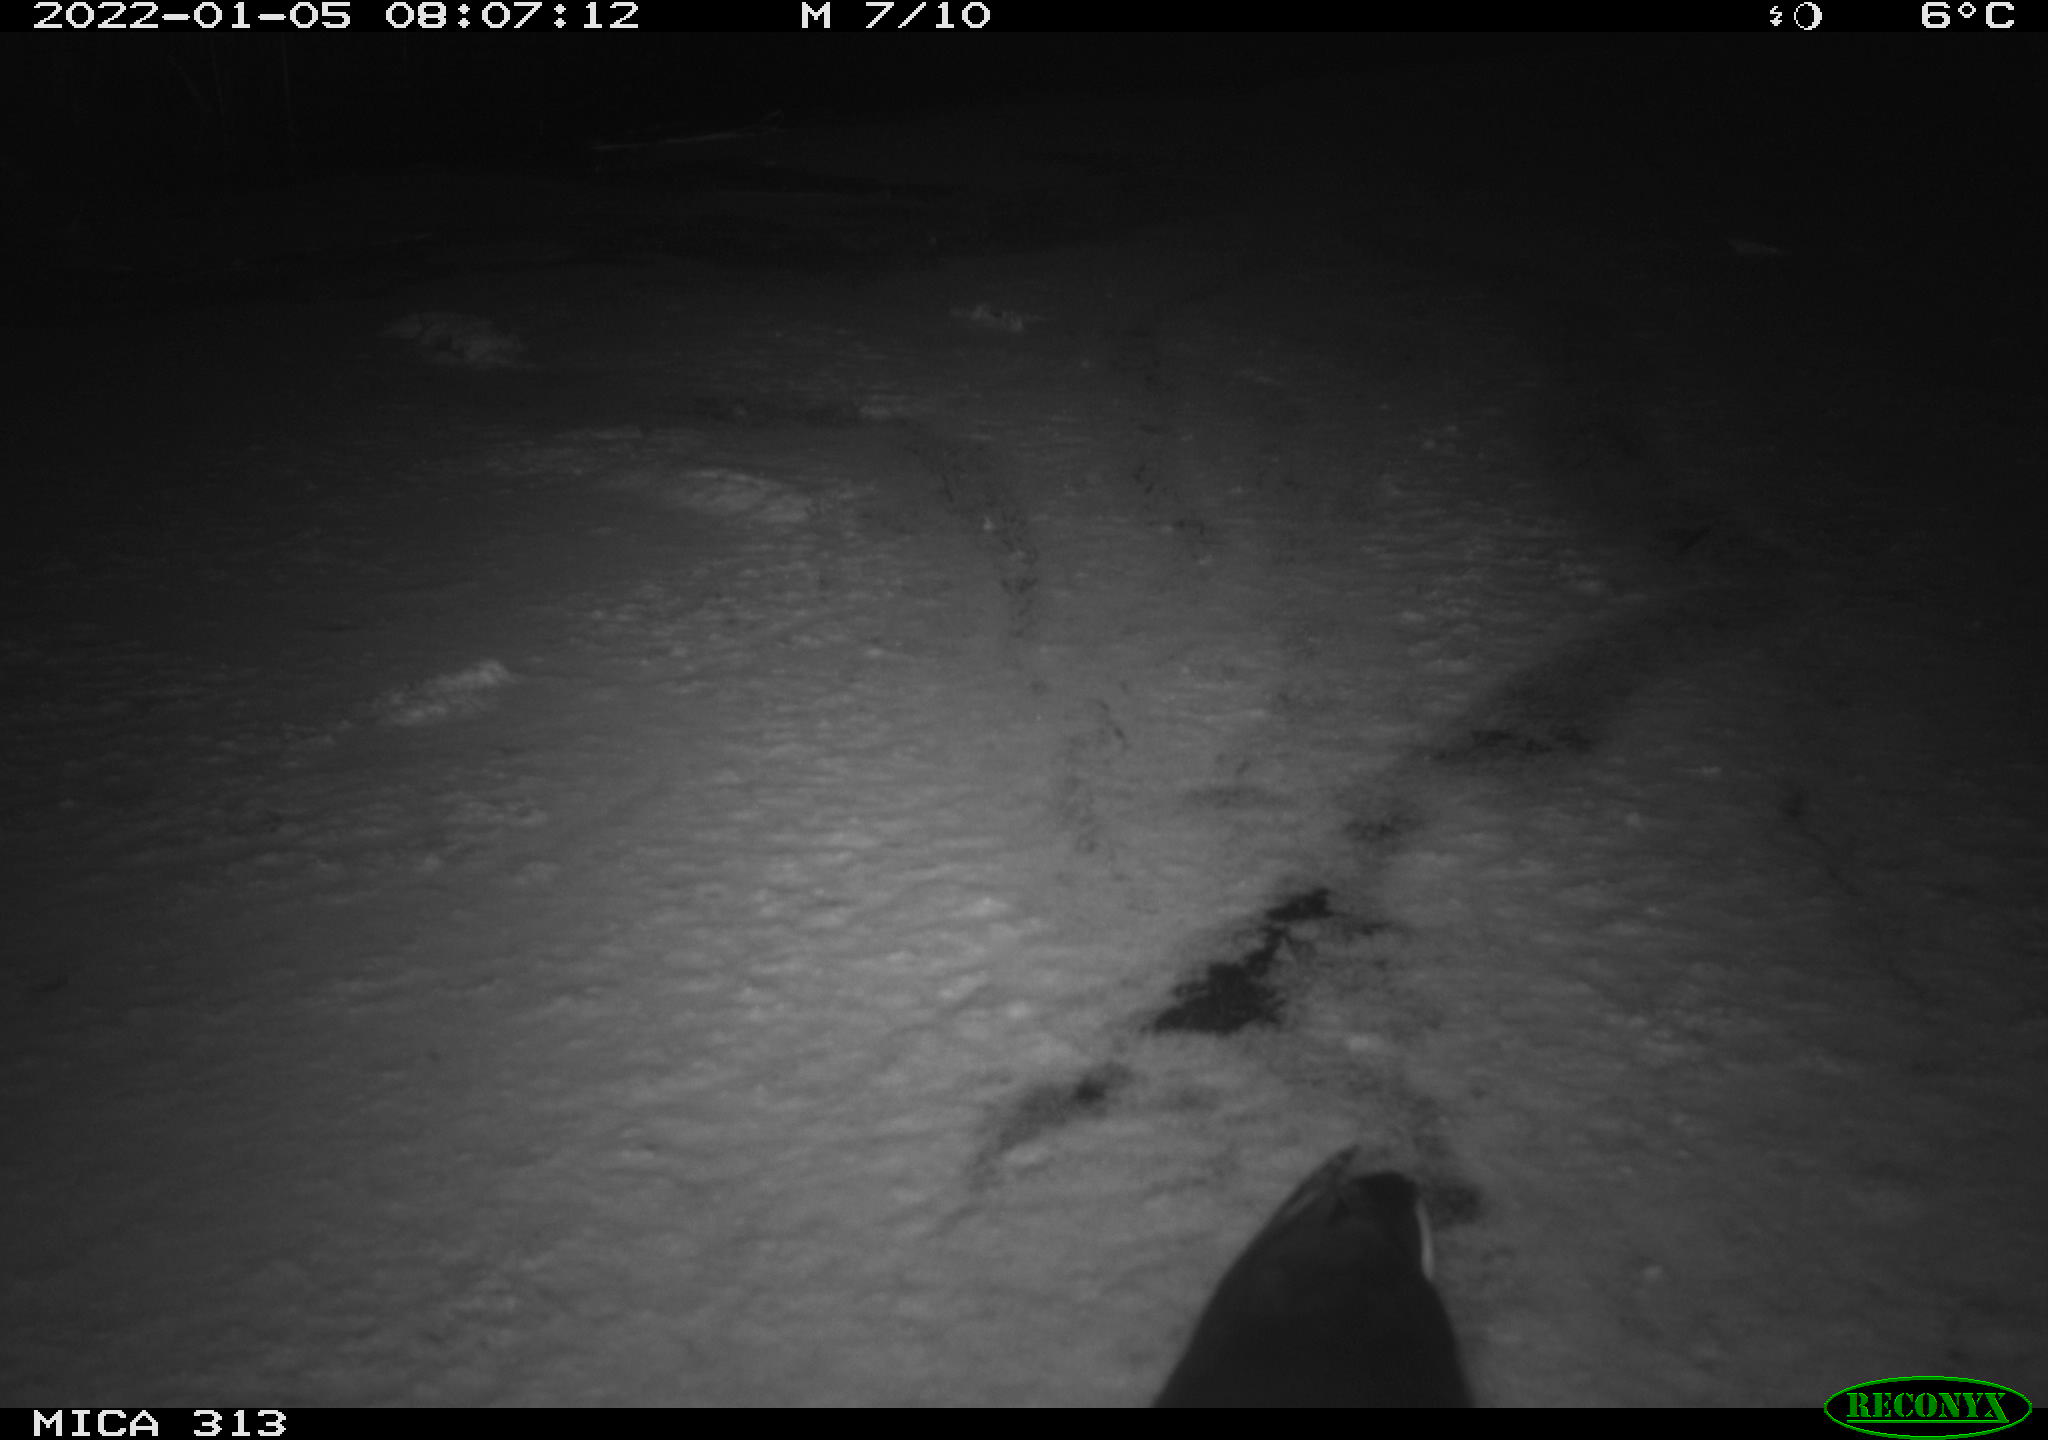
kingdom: Animalia
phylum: Chordata
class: Aves
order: Gruiformes
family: Rallidae
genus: Gallinula
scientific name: Gallinula chloropus
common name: Common moorhen
